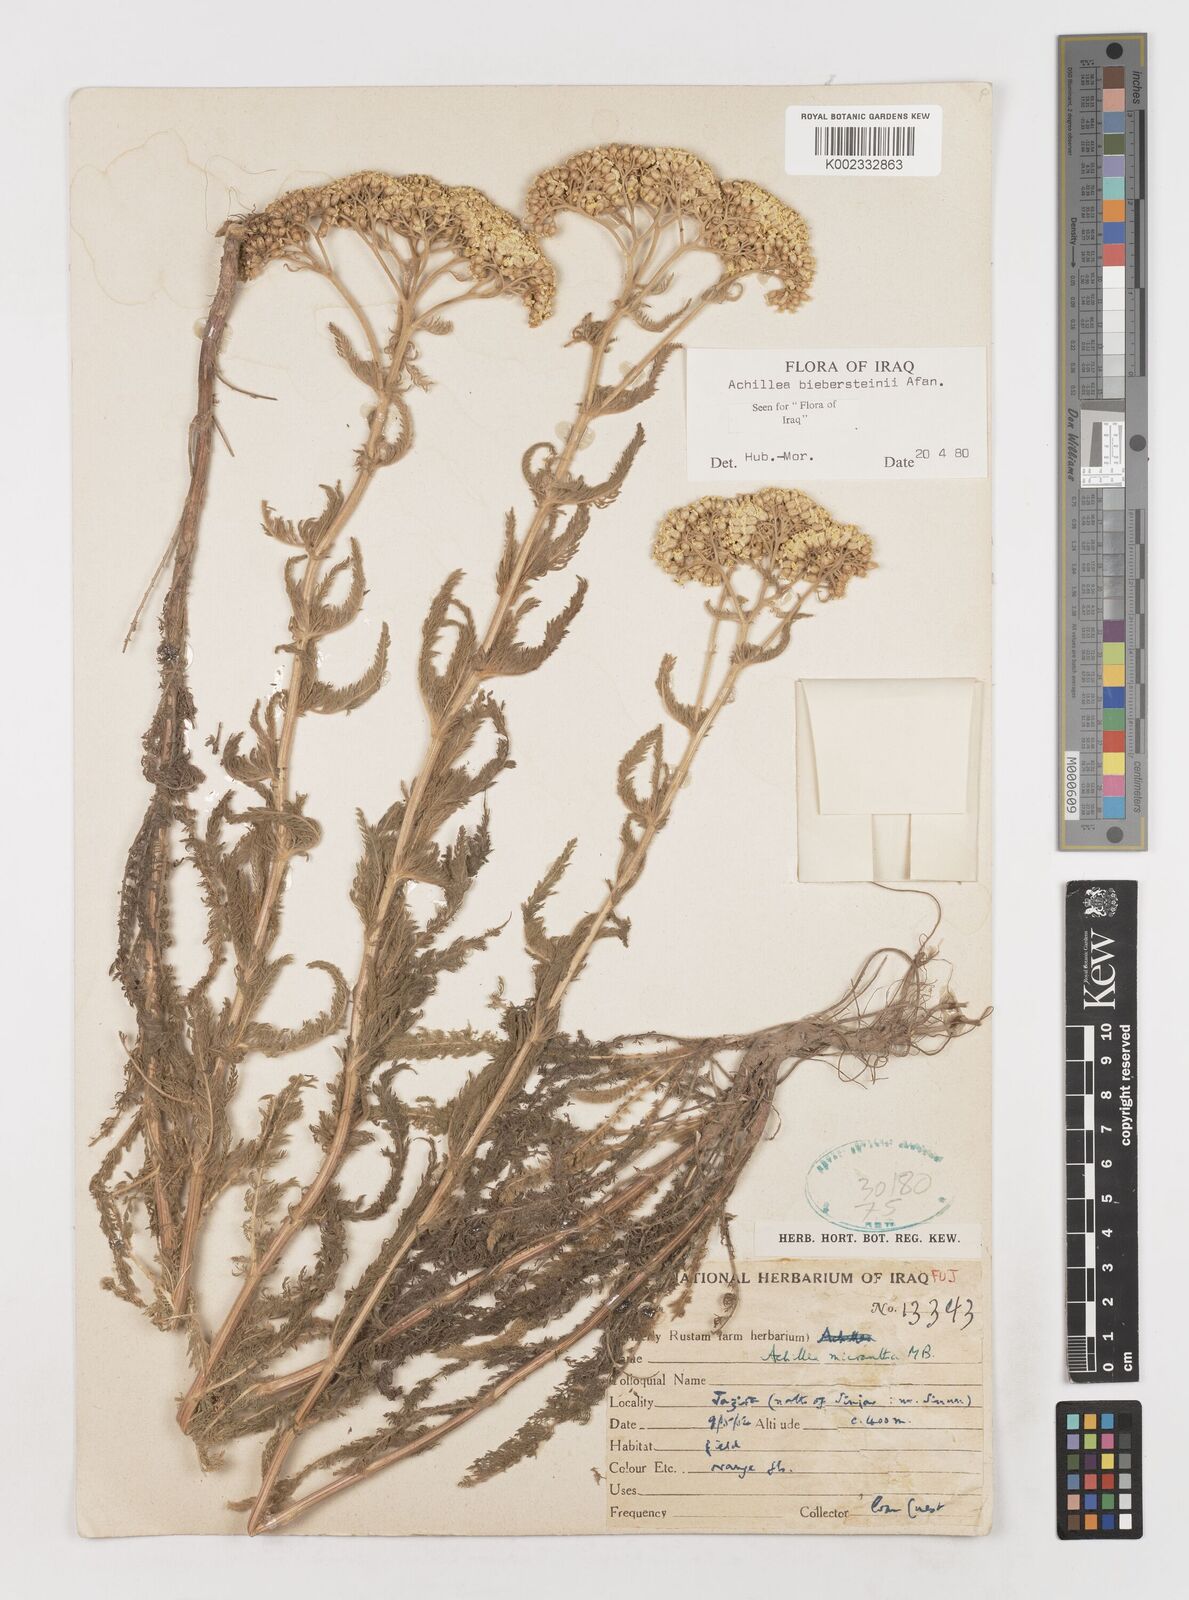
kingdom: Plantae
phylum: Tracheophyta
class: Magnoliopsida
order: Asterales
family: Asteraceae
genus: Achillea
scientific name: Achillea arabica
